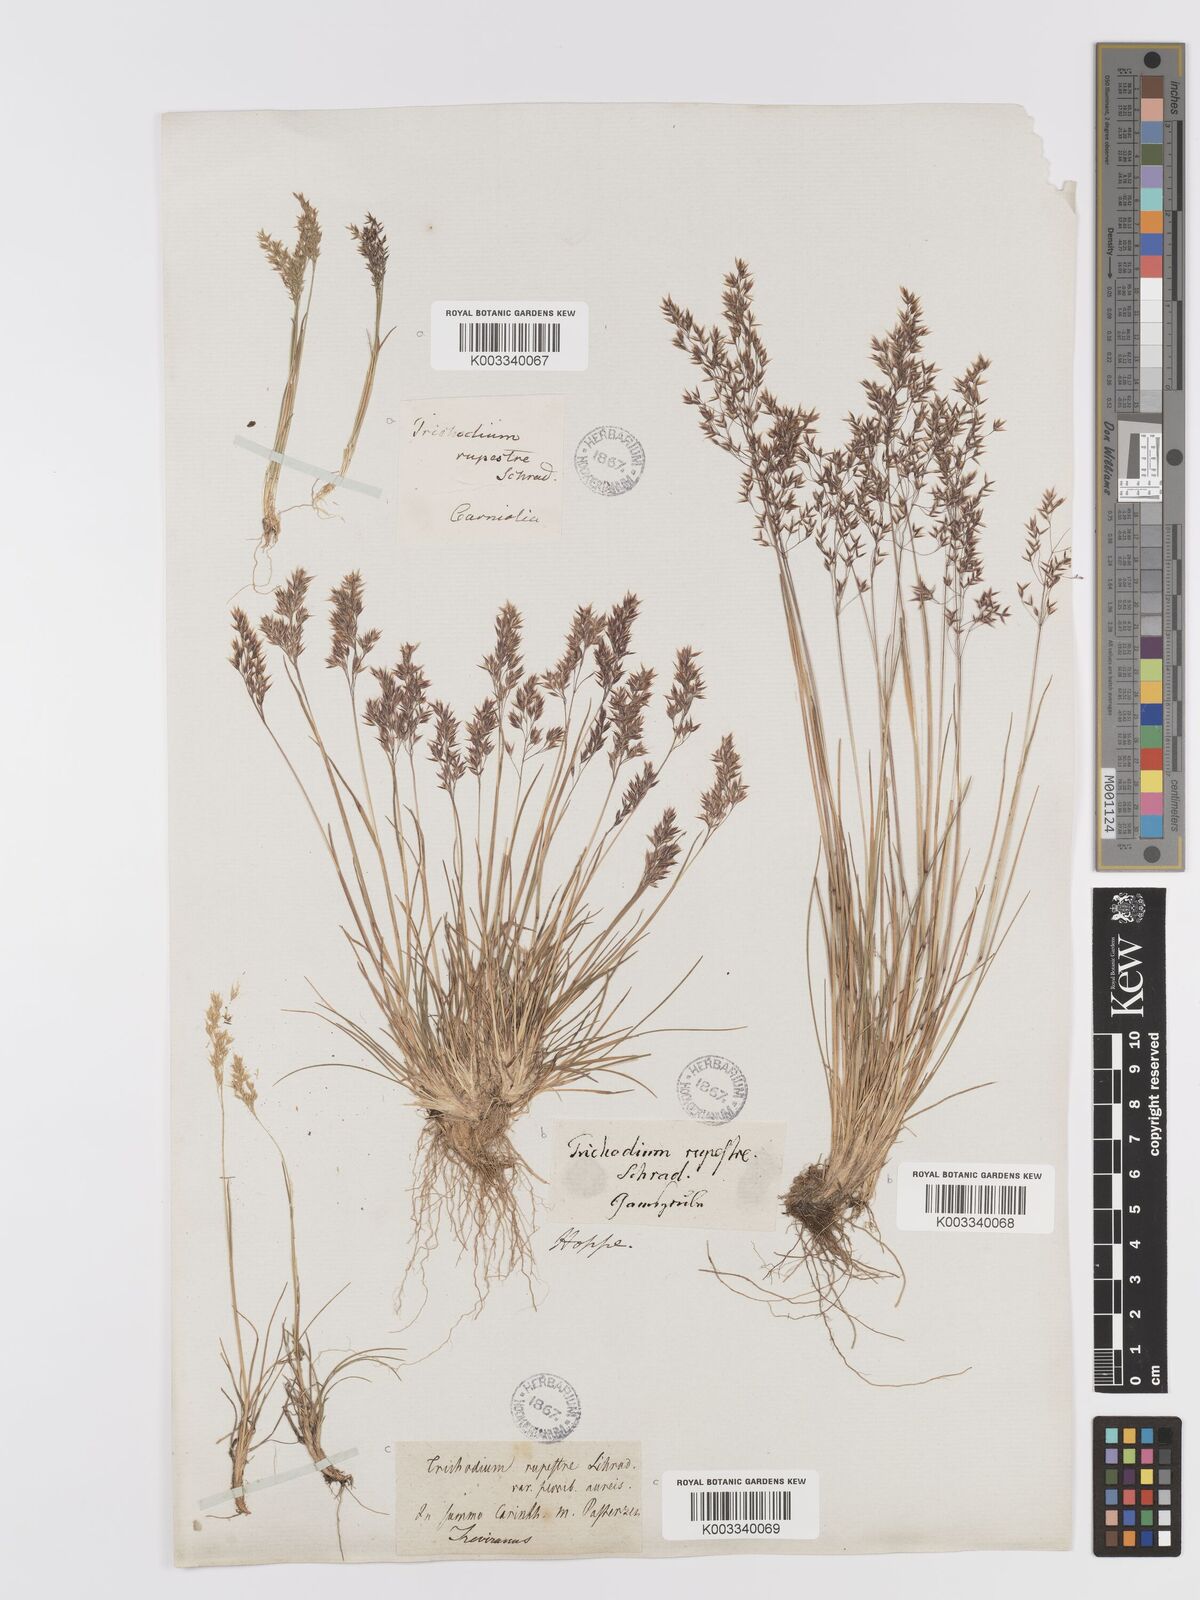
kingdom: Plantae
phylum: Tracheophyta
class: Liliopsida
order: Poales
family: Poaceae
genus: Agrostis
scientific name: Agrostis rupestris
